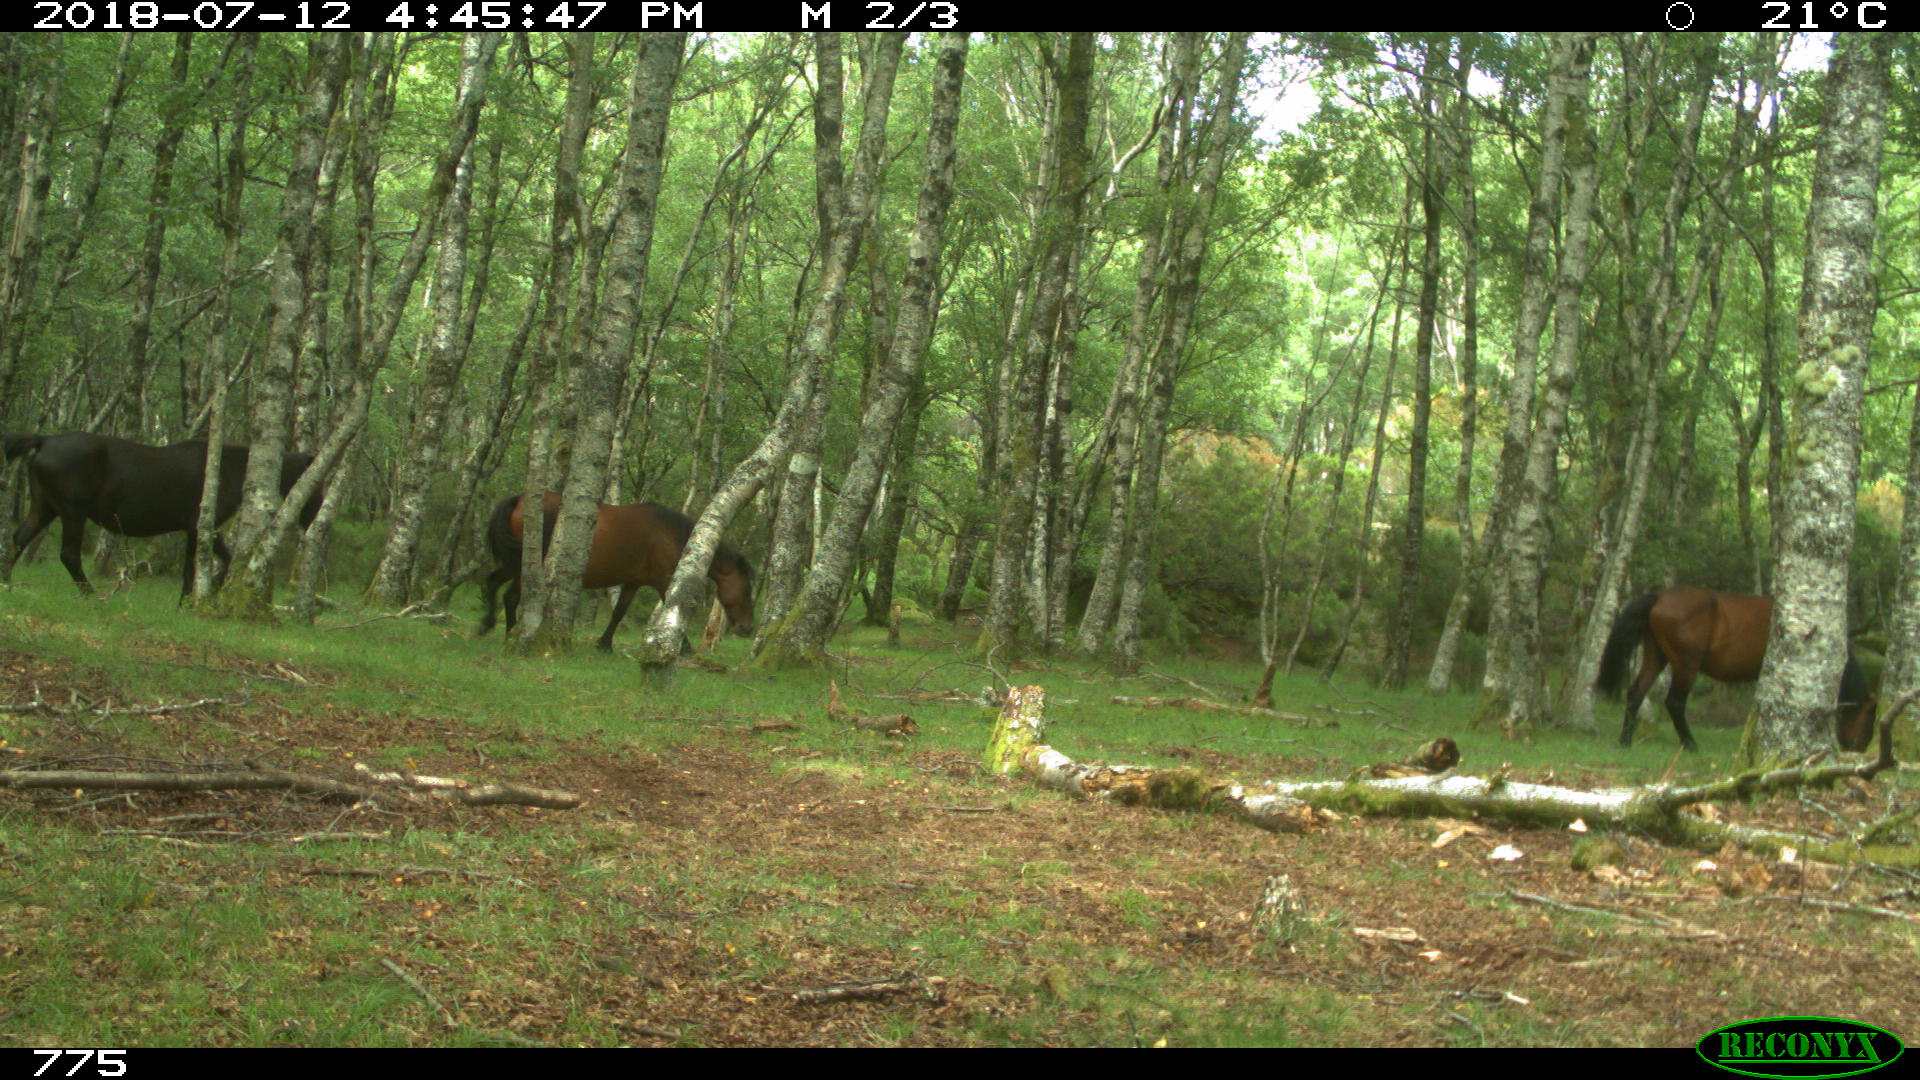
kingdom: Animalia
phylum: Chordata
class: Mammalia
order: Perissodactyla
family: Equidae
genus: Equus
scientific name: Equus caballus
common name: Horse
